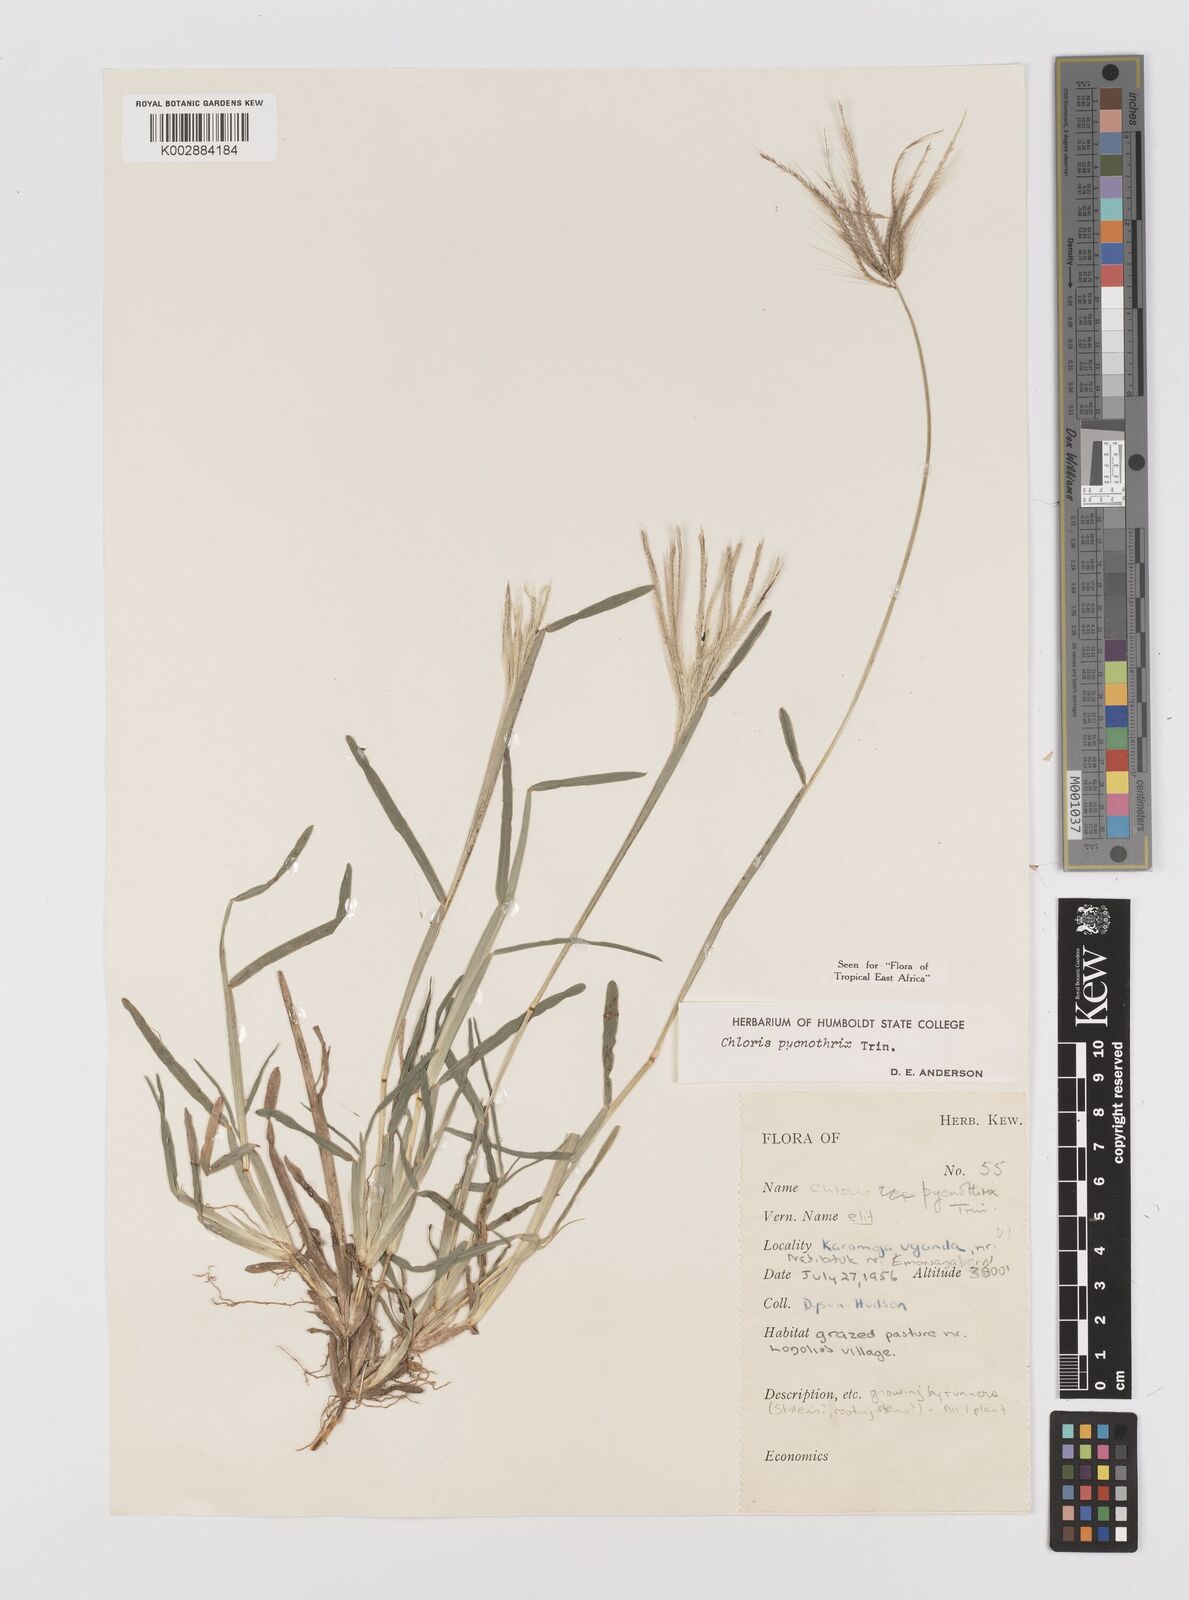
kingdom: Plantae
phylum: Tracheophyta
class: Liliopsida
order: Poales
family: Poaceae
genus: Chloris
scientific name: Chloris pycnothrix
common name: Spiderweb chloris
